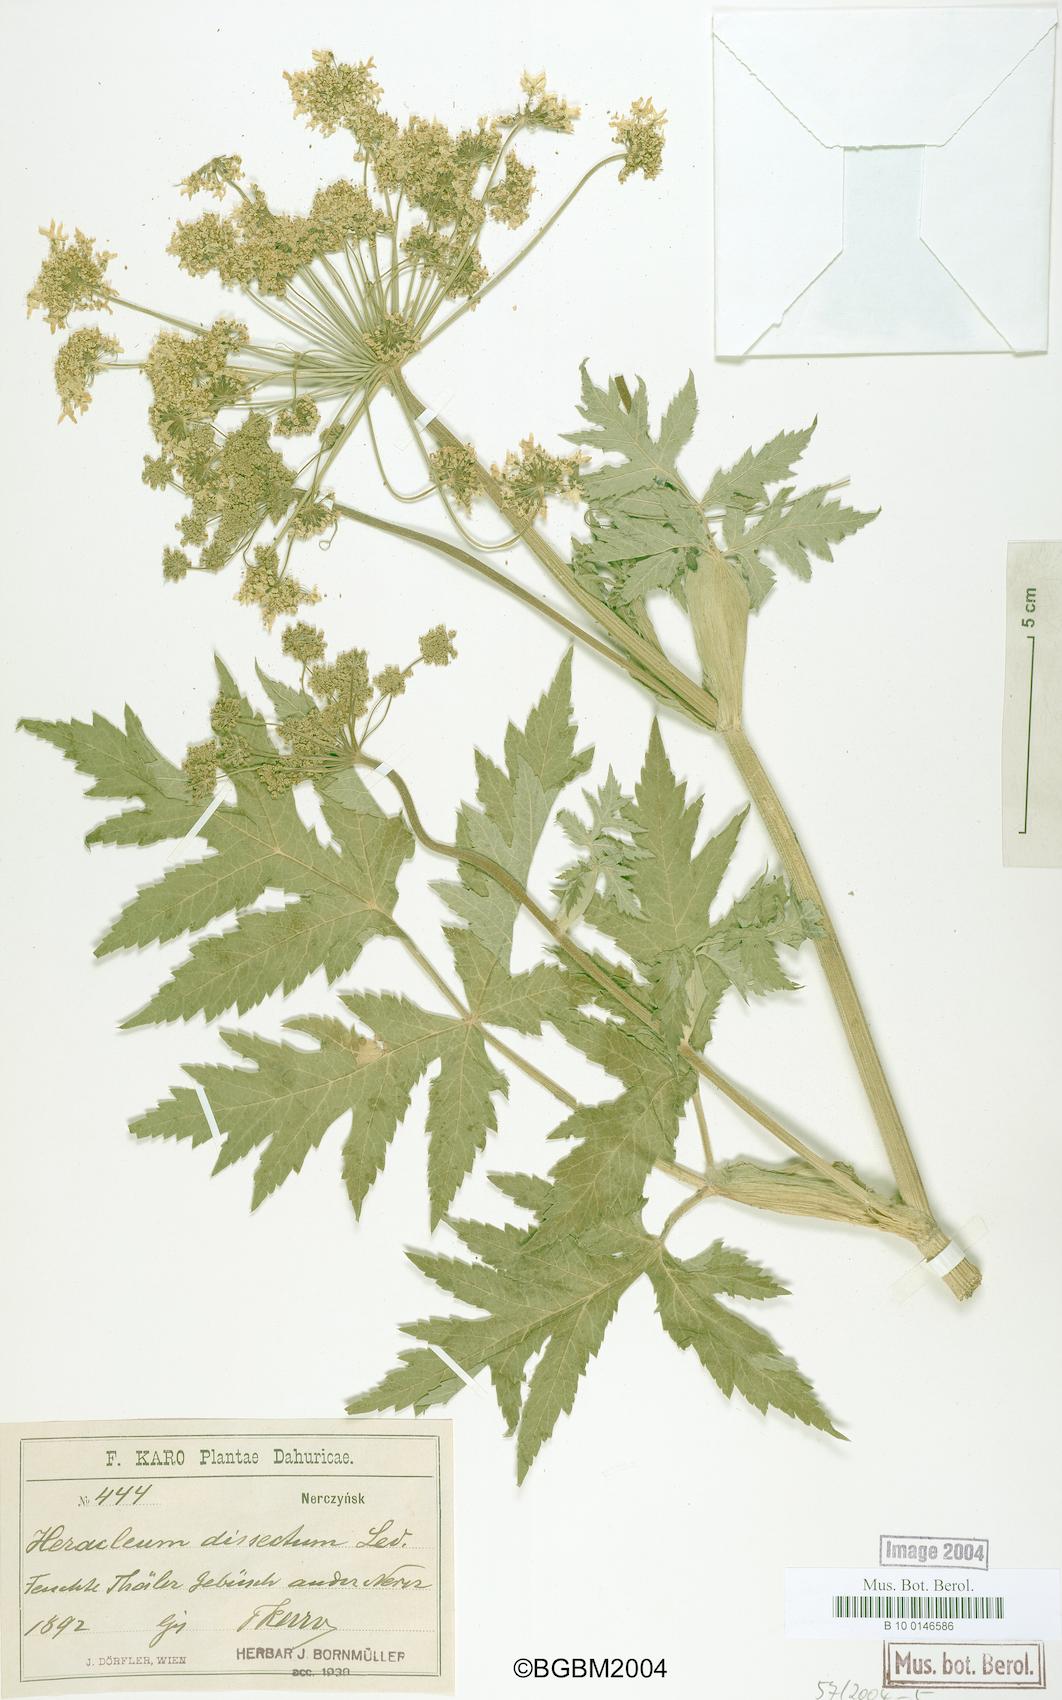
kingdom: Plantae
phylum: Tracheophyta
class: Magnoliopsida
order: Apiales
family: Apiaceae
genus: Heracleum
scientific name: Heracleum dissectum
